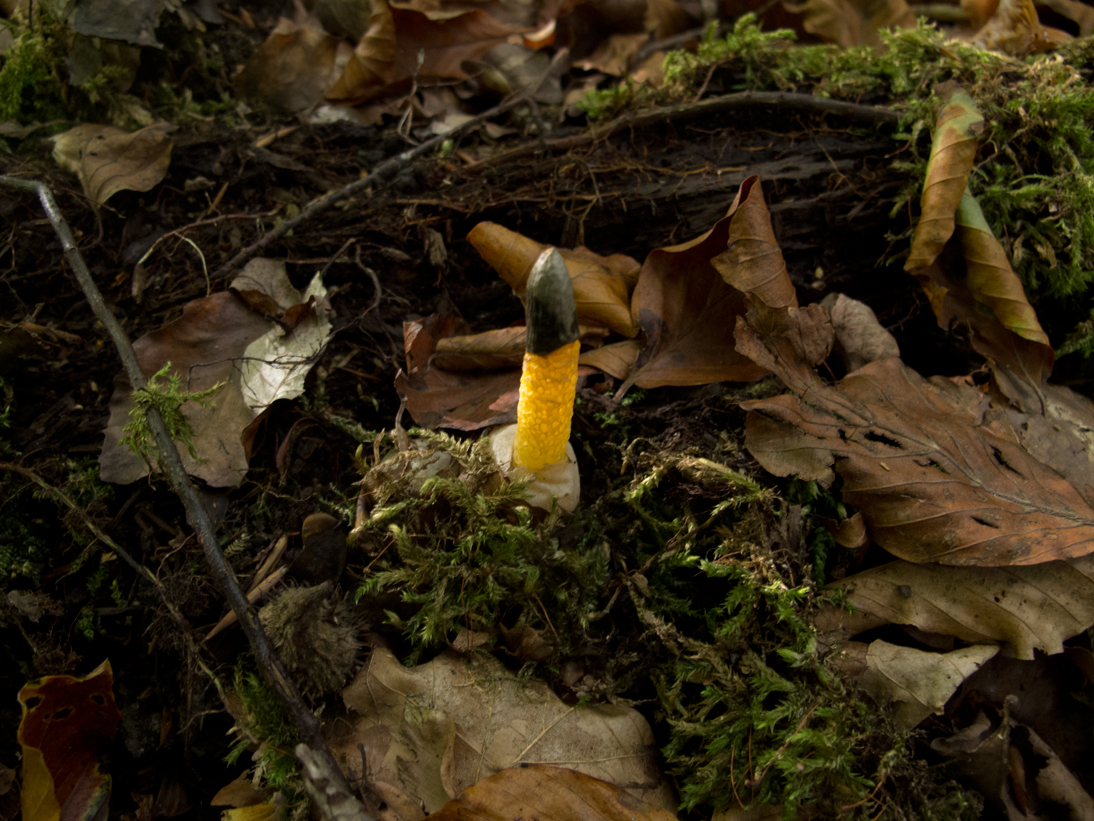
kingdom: Fungi
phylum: Basidiomycota
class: Agaricomycetes
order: Phallales
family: Phallaceae
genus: Mutinus
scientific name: Mutinus caninus
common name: hunde-stinksvamp
